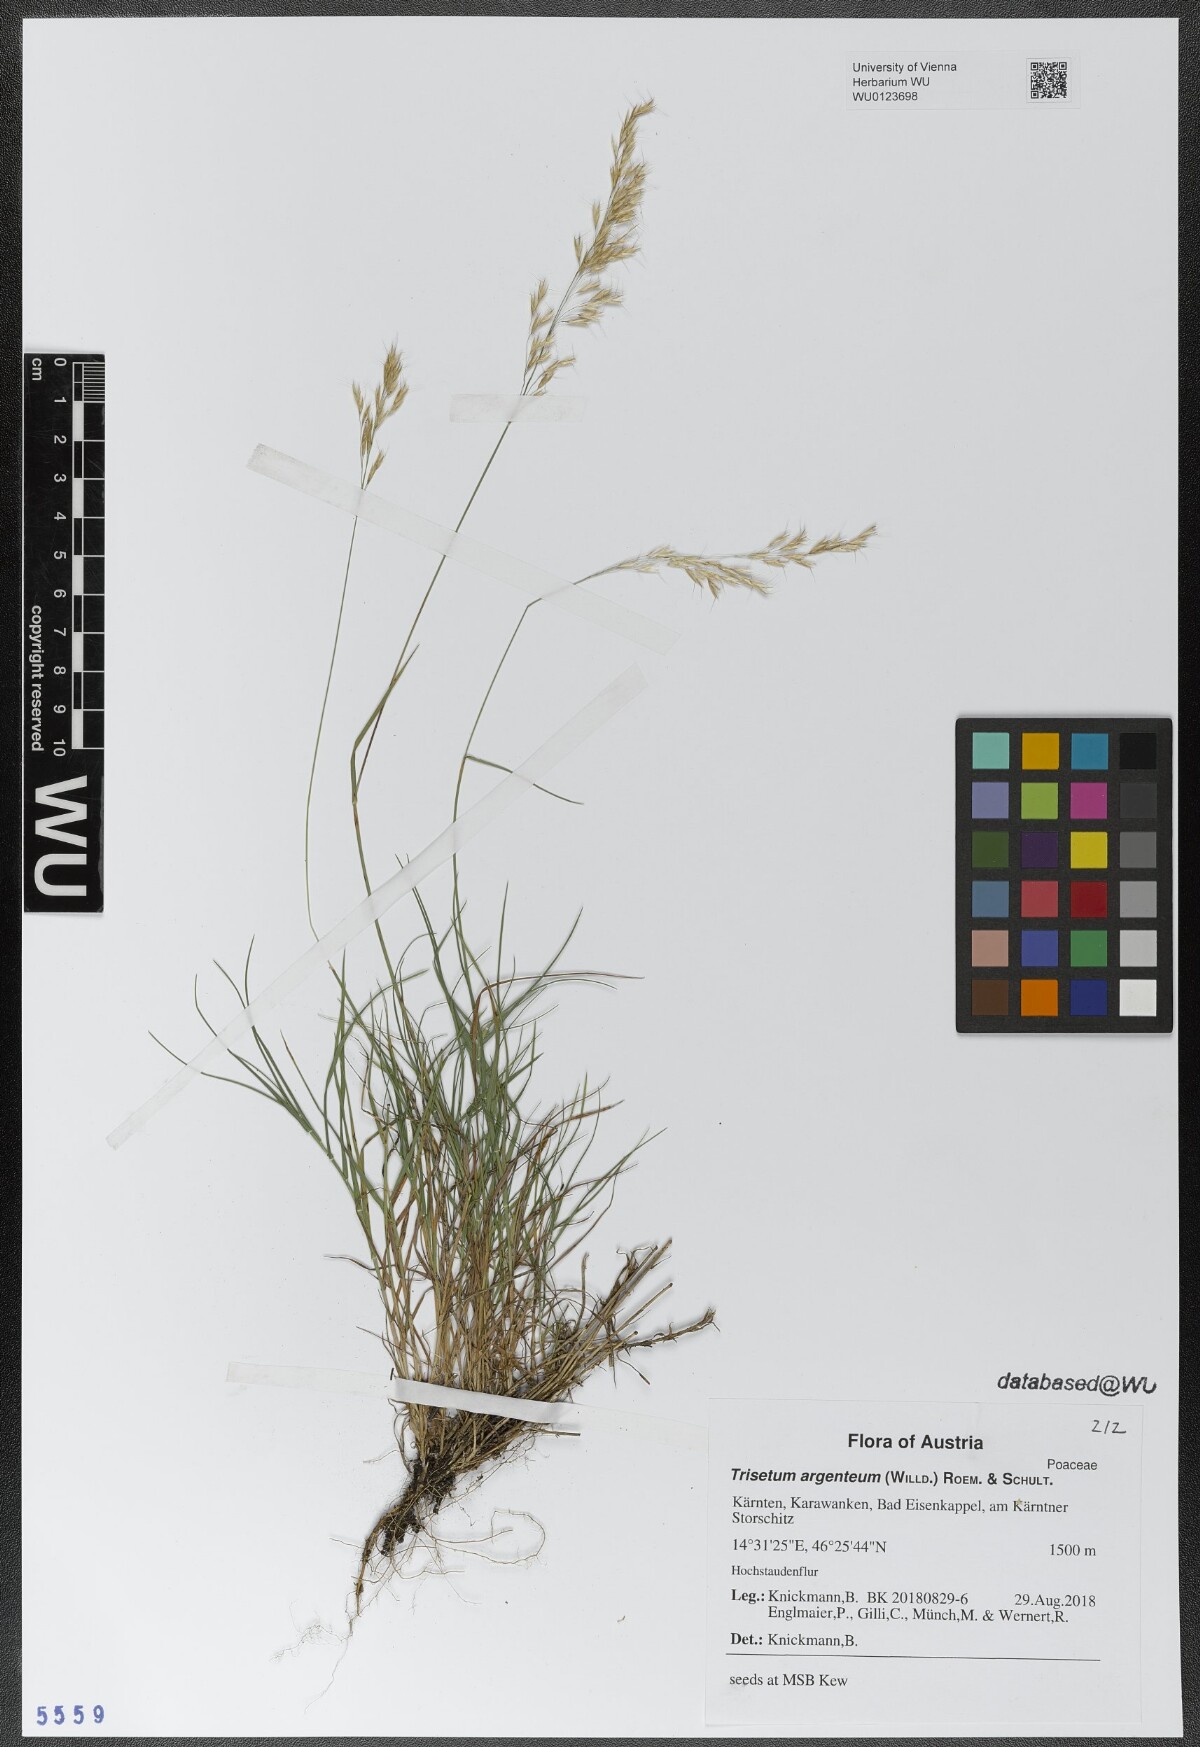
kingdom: Plantae
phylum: Tracheophyta
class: Liliopsida
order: Poales
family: Poaceae
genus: Trisetum
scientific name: Trisetum argenteum
